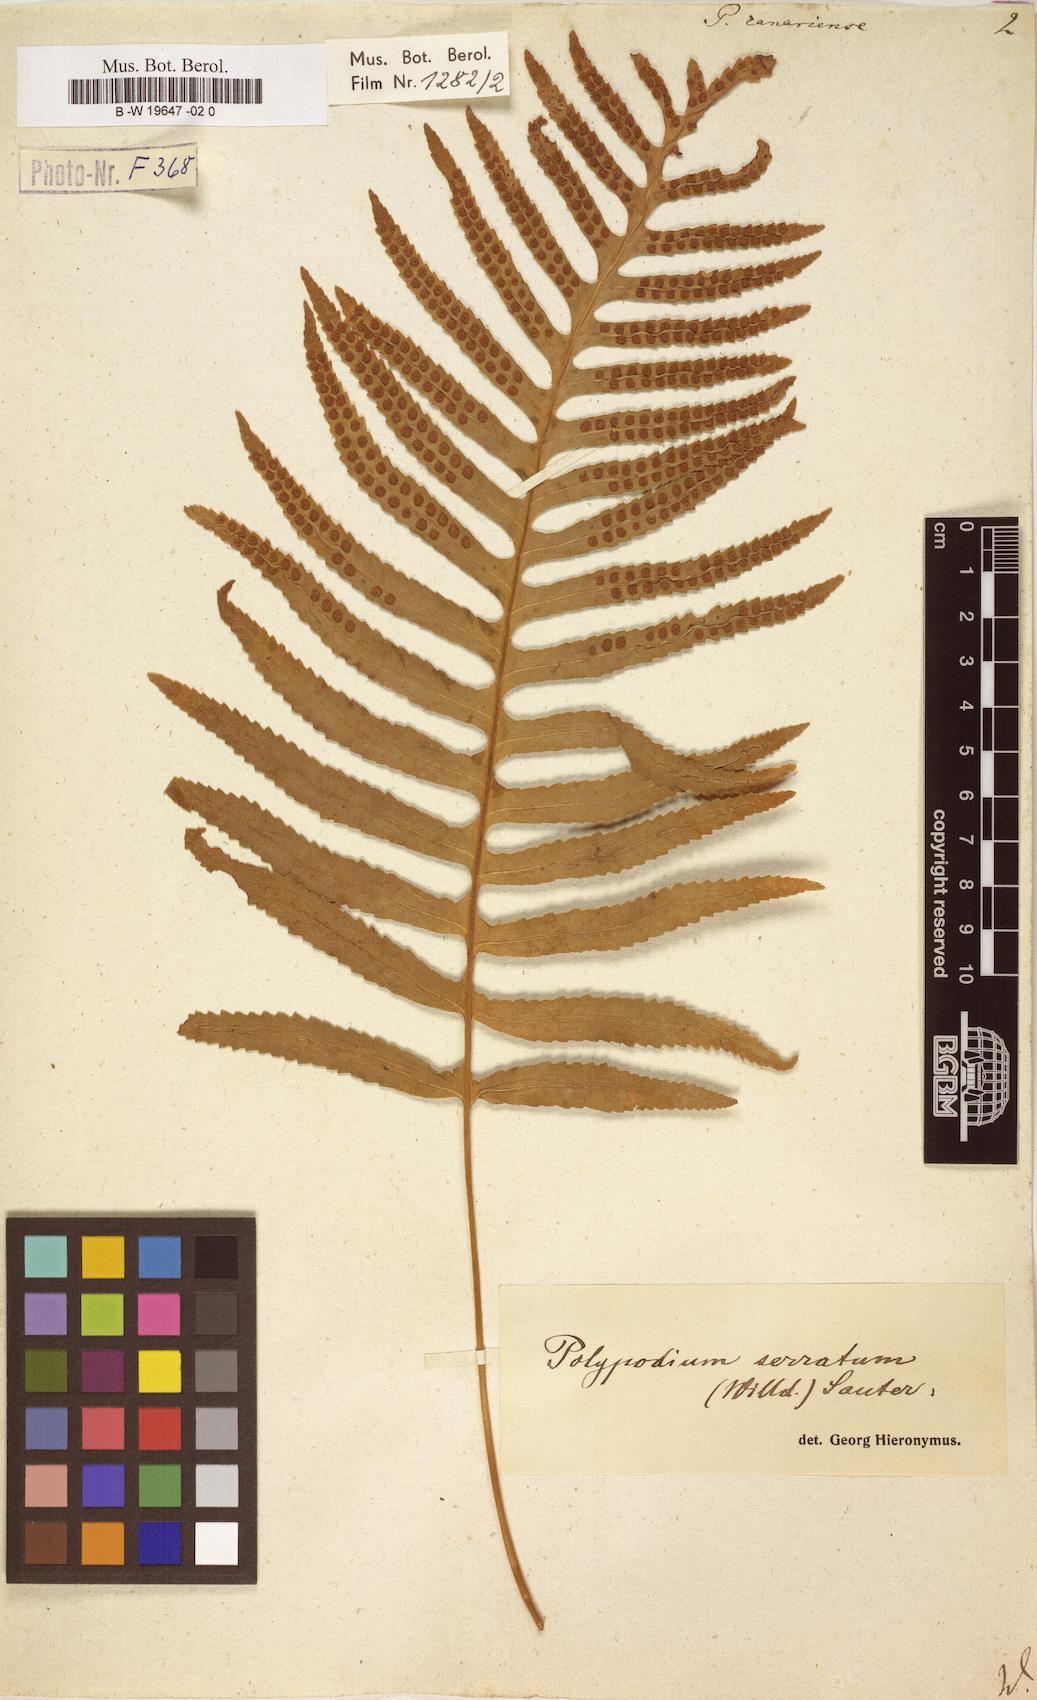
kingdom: Plantae
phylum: Tracheophyta
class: Polypodiopsida
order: Polypodiales
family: Polypodiaceae
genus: Polypodium
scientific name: Polypodium cambricum
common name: Southern polypody
